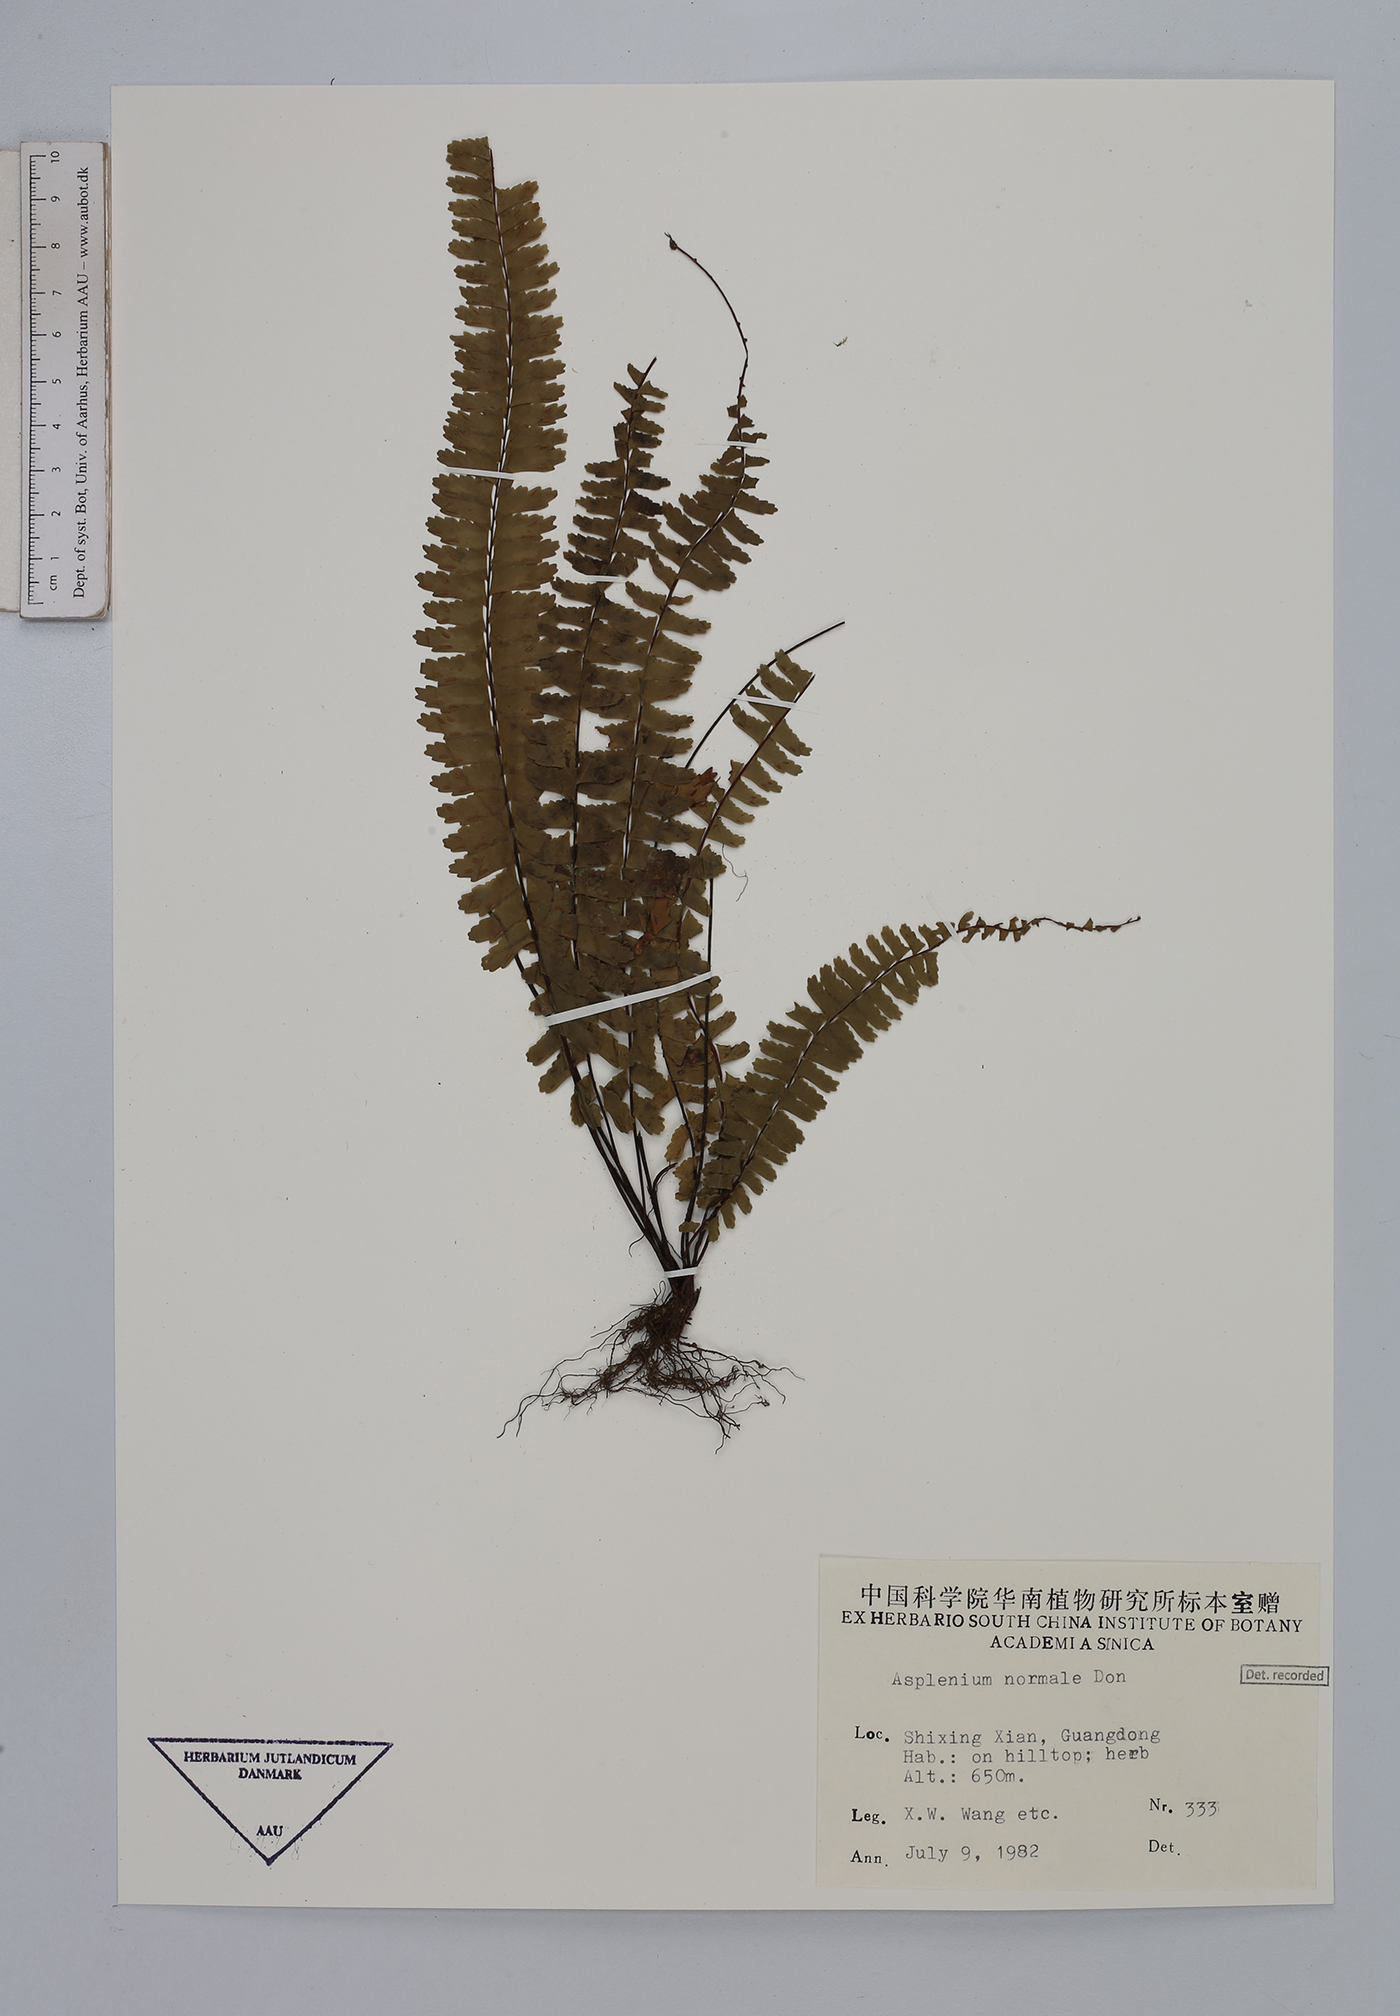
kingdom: Plantae
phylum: Tracheophyta
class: Polypodiopsida
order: Polypodiales
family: Aspleniaceae
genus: Asplenium
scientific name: Asplenium normale
